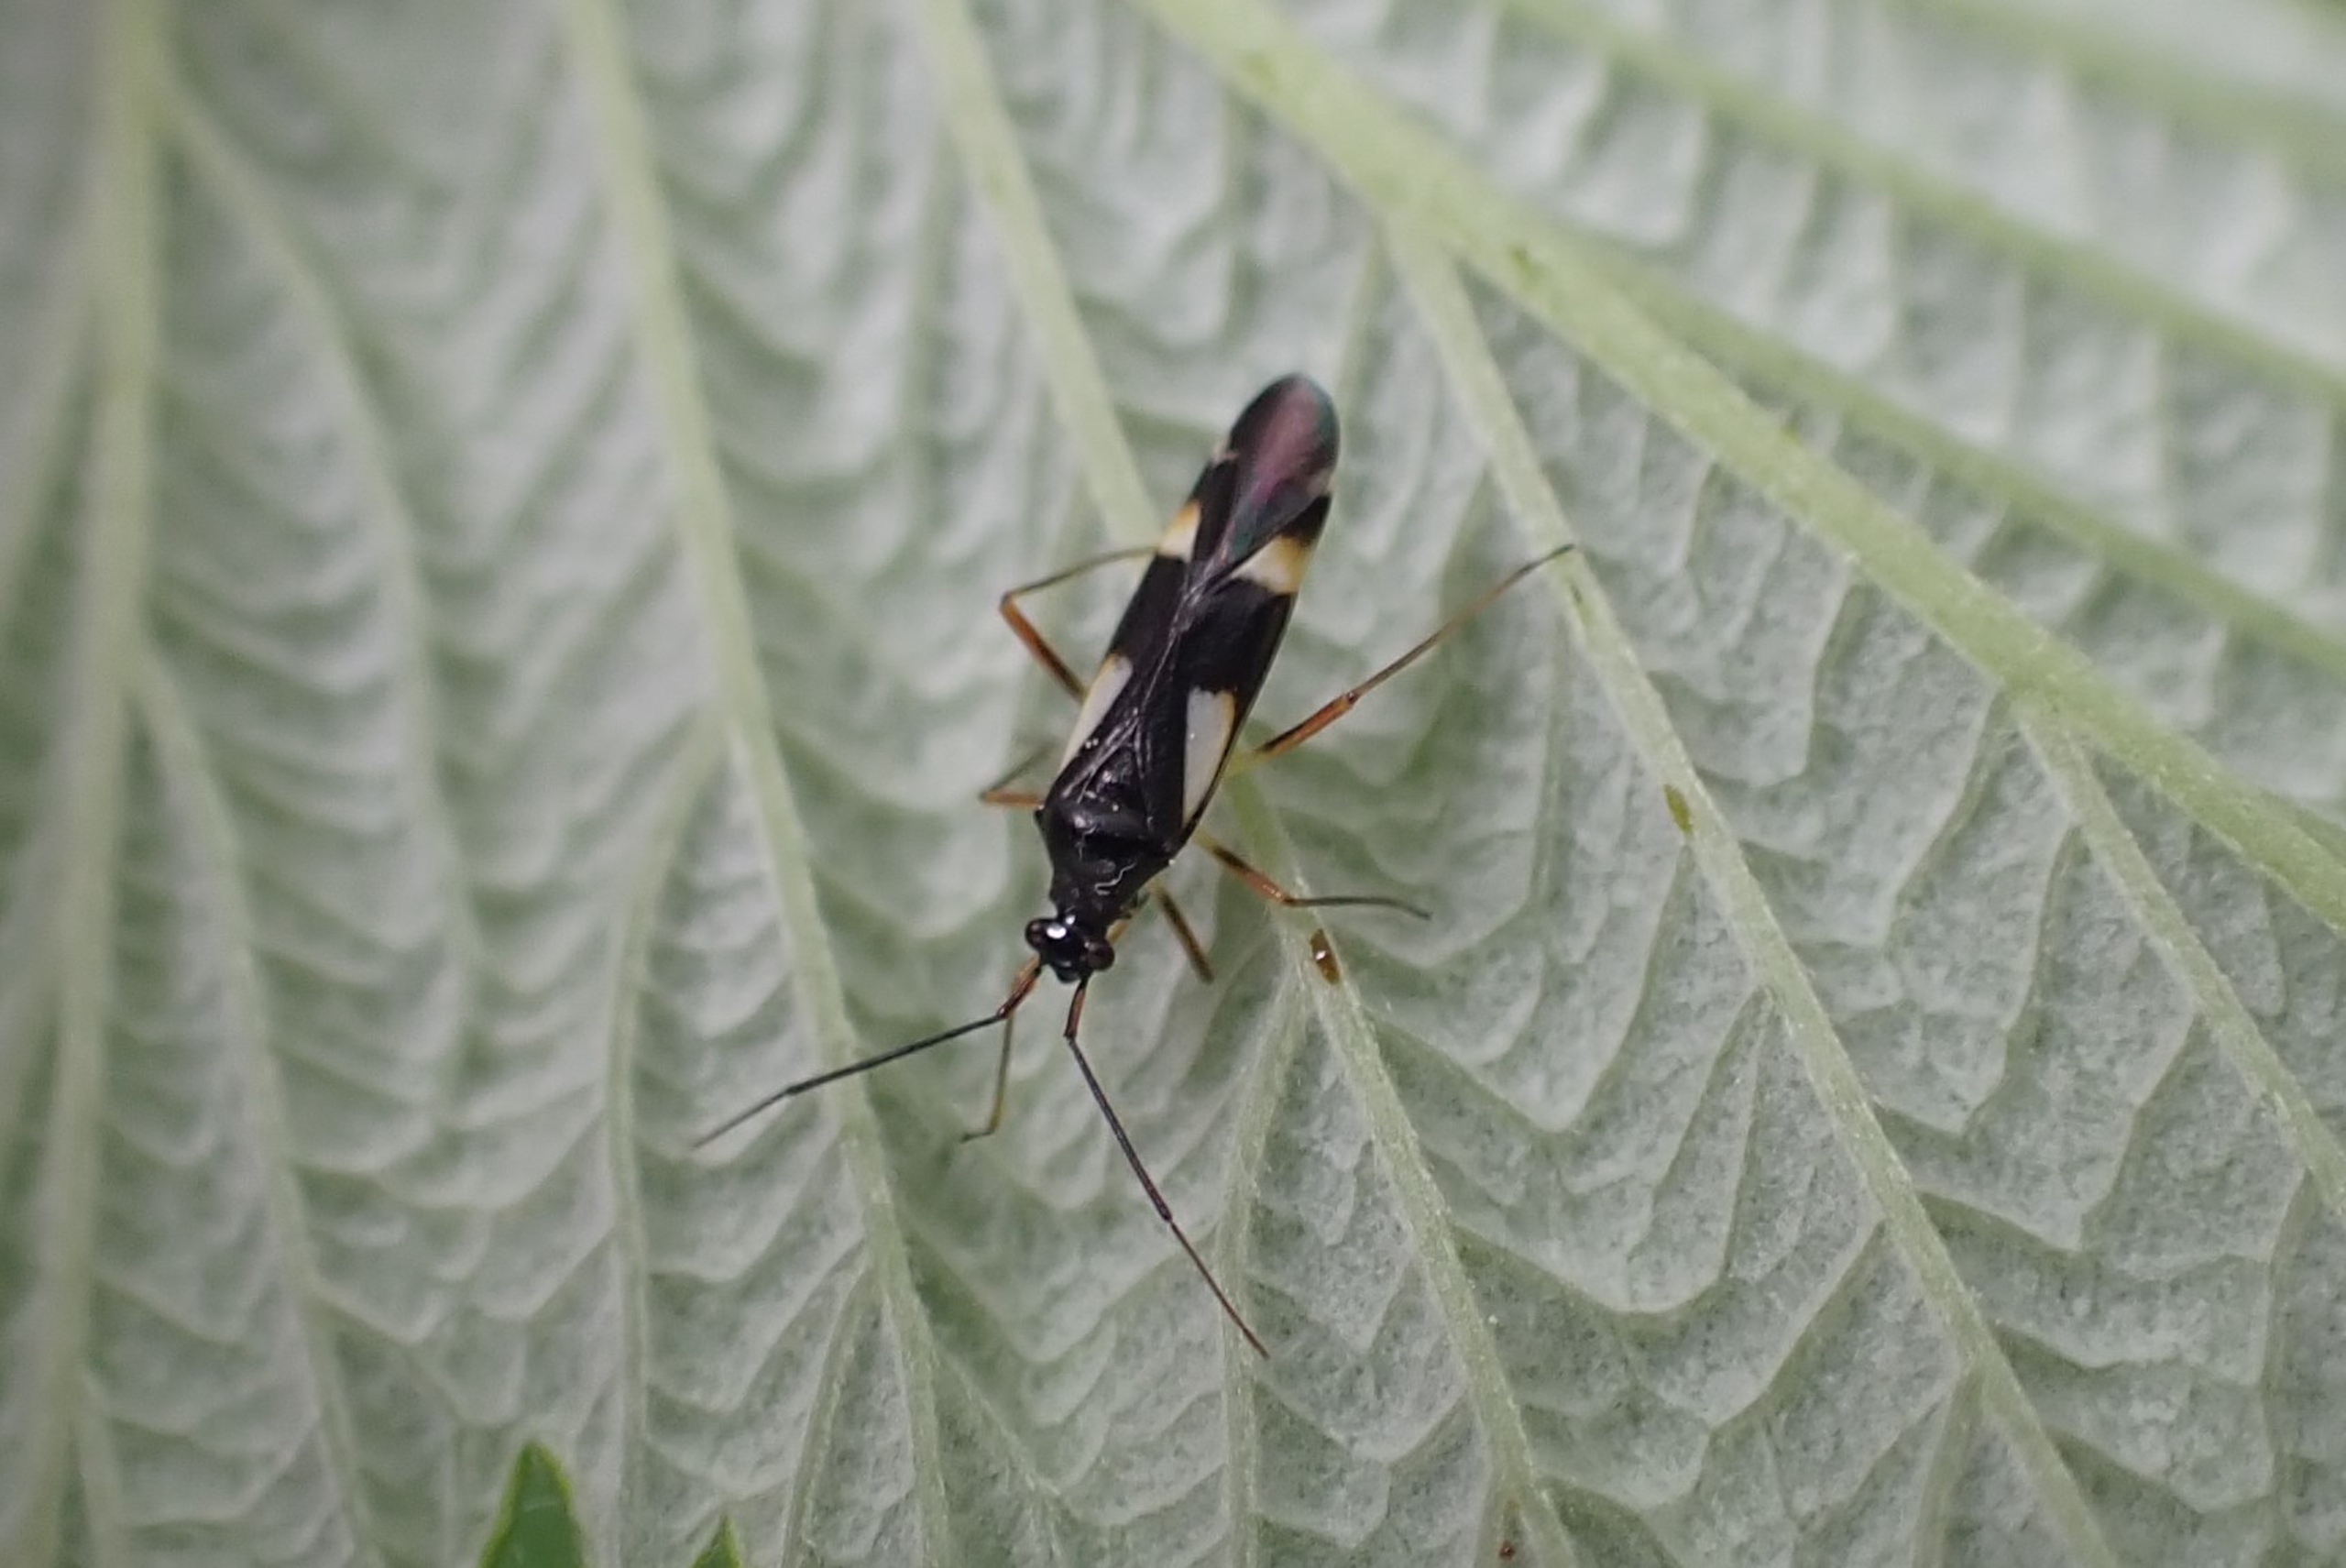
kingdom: Animalia
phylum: Arthropoda
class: Insecta
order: Hemiptera
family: Miridae
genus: Dryophilocoris
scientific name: Dryophilocoris flavoquadrimaculatus
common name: Fireplettet blomstertæge
